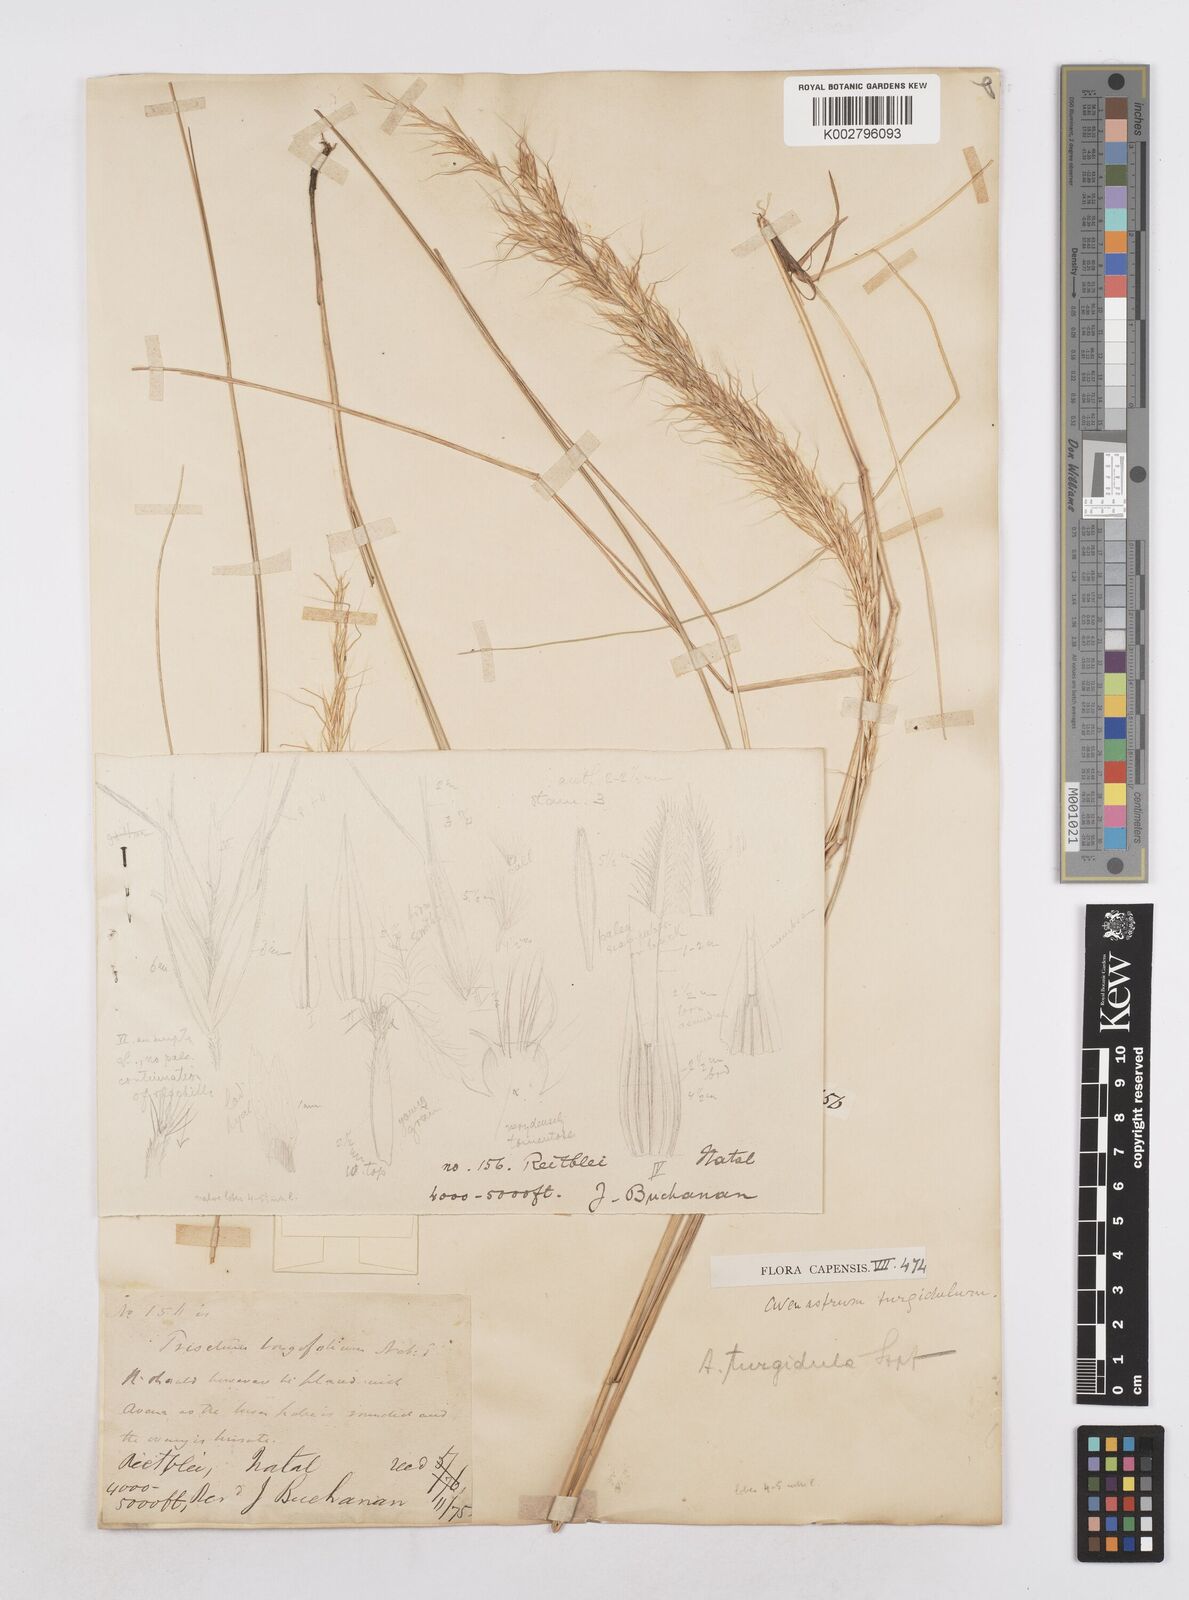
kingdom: Plantae
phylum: Tracheophyta
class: Liliopsida
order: Poales
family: Poaceae
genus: Trisetopsis
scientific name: Trisetopsis longifolia
